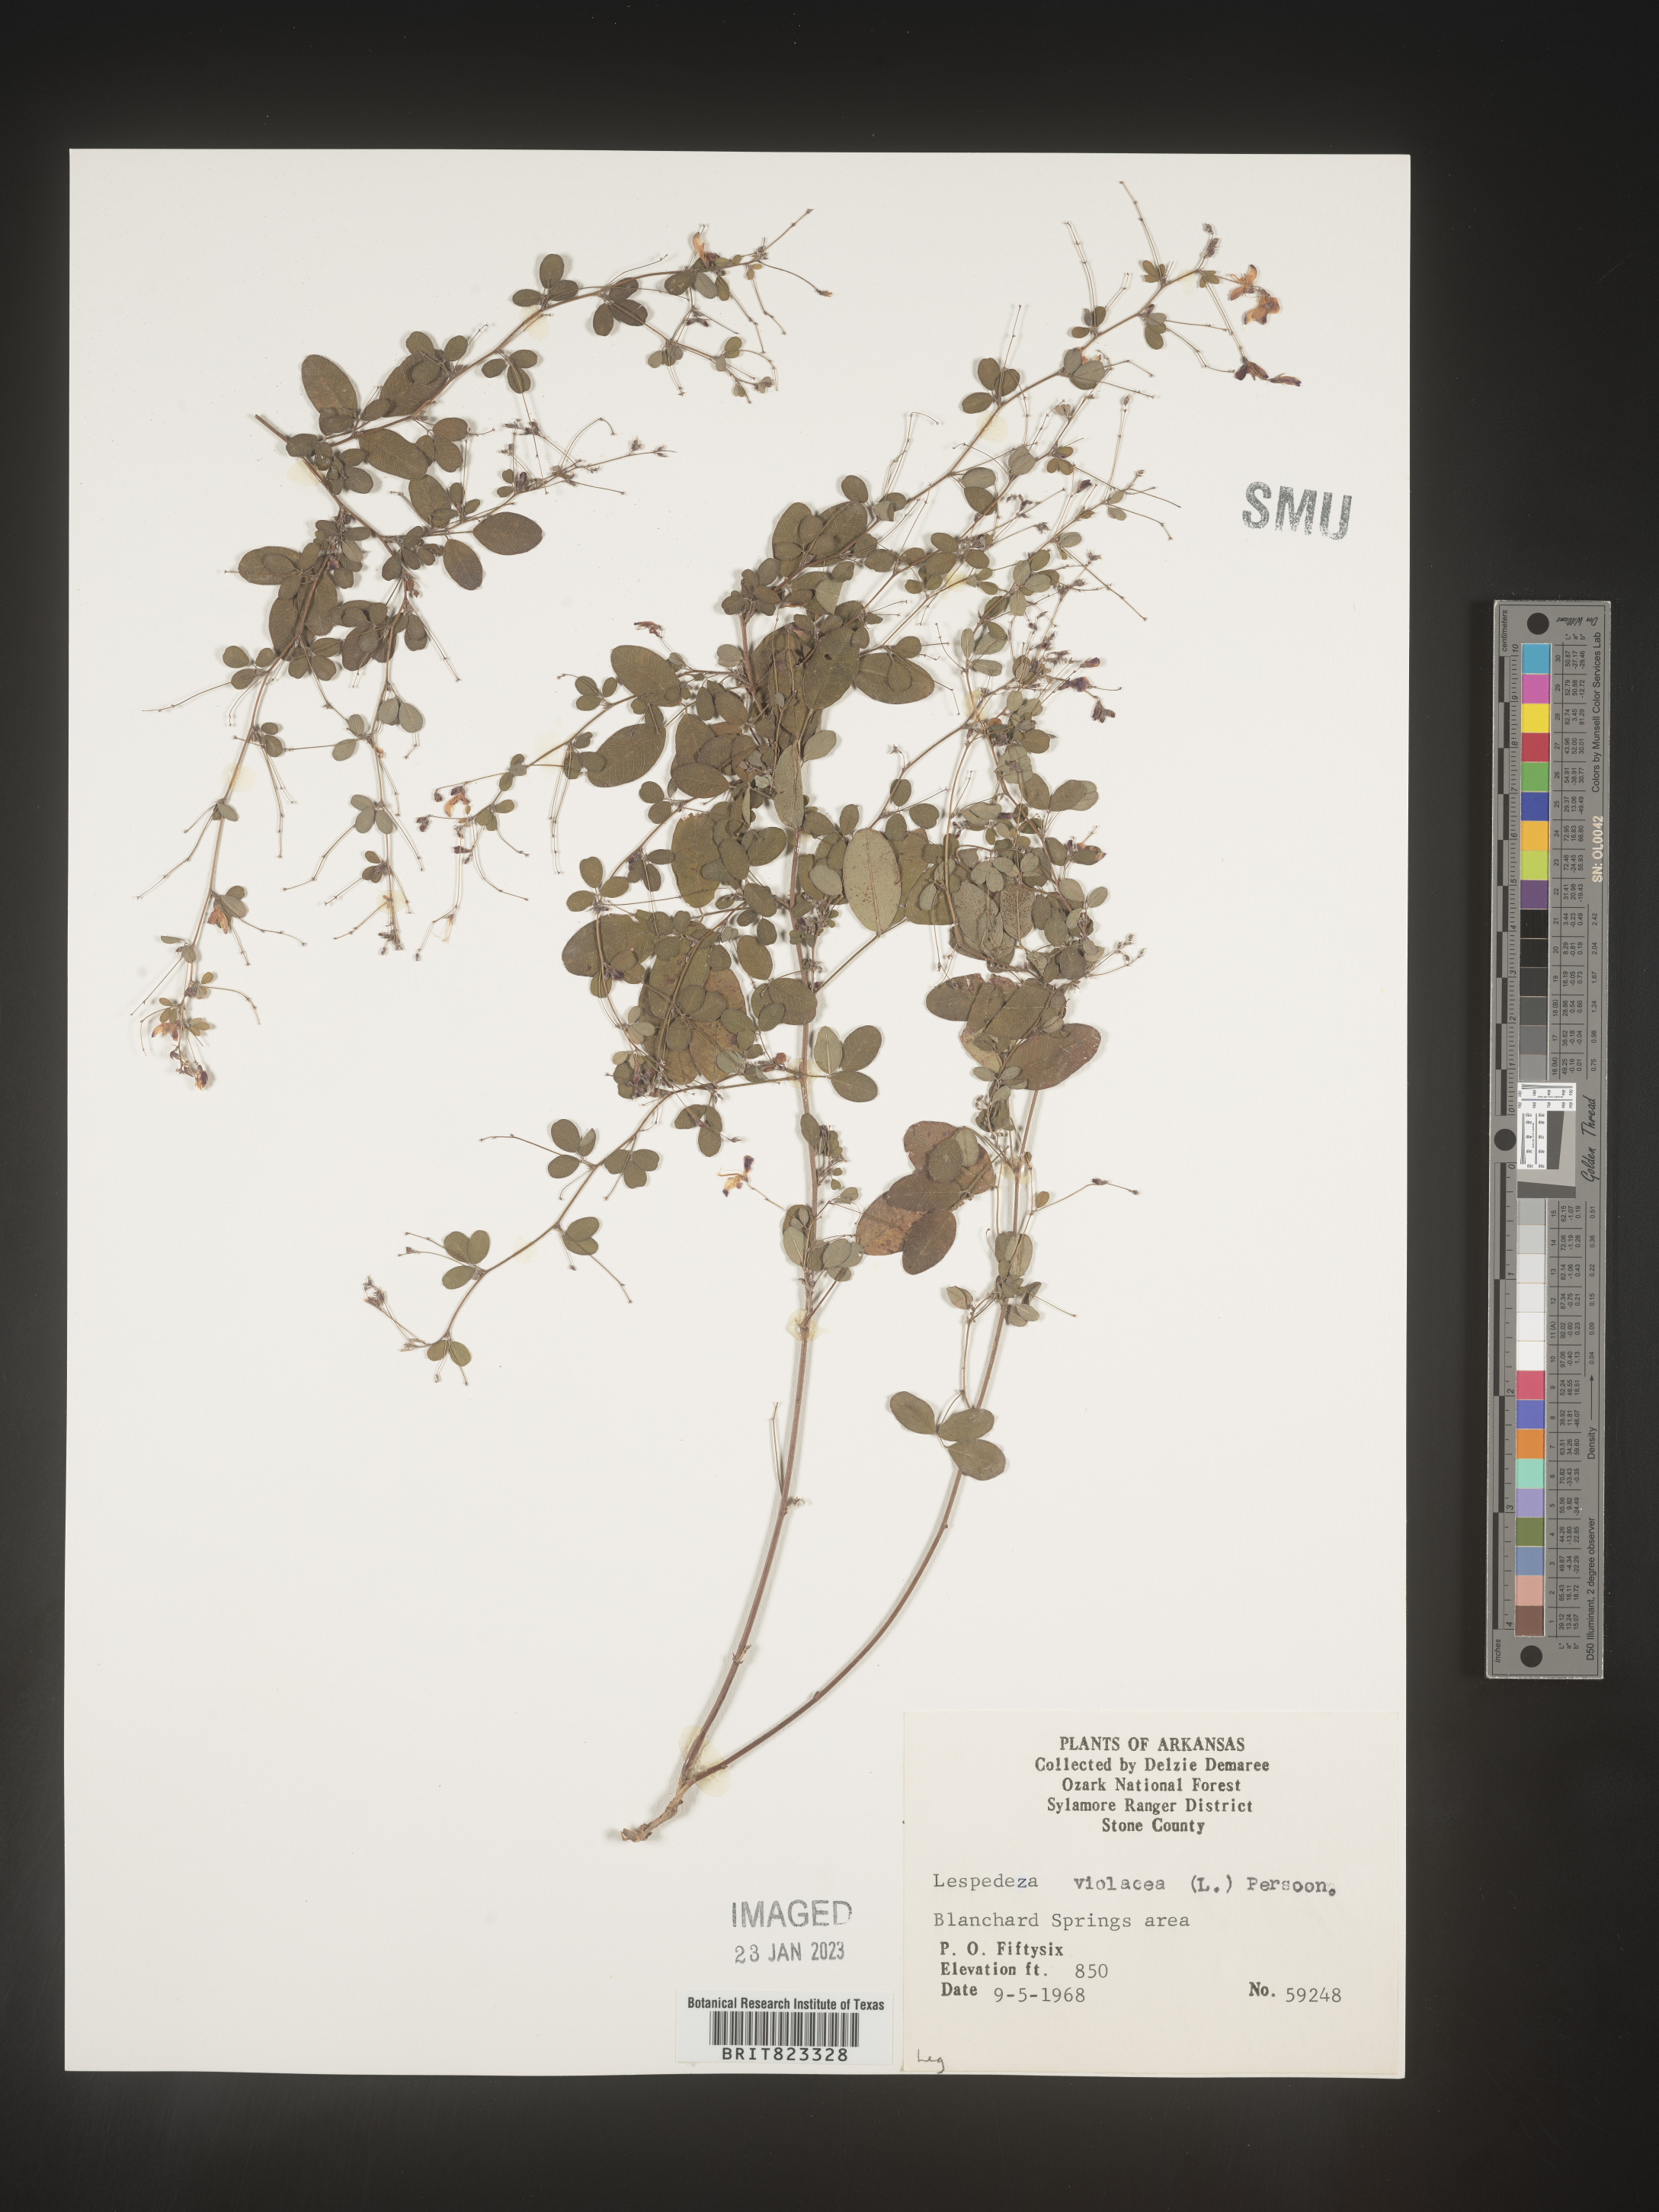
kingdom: Plantae
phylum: Tracheophyta
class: Magnoliopsida
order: Fabales
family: Fabaceae
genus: Lespedeza
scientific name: Lespedeza violacea
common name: Wand bush-clover
